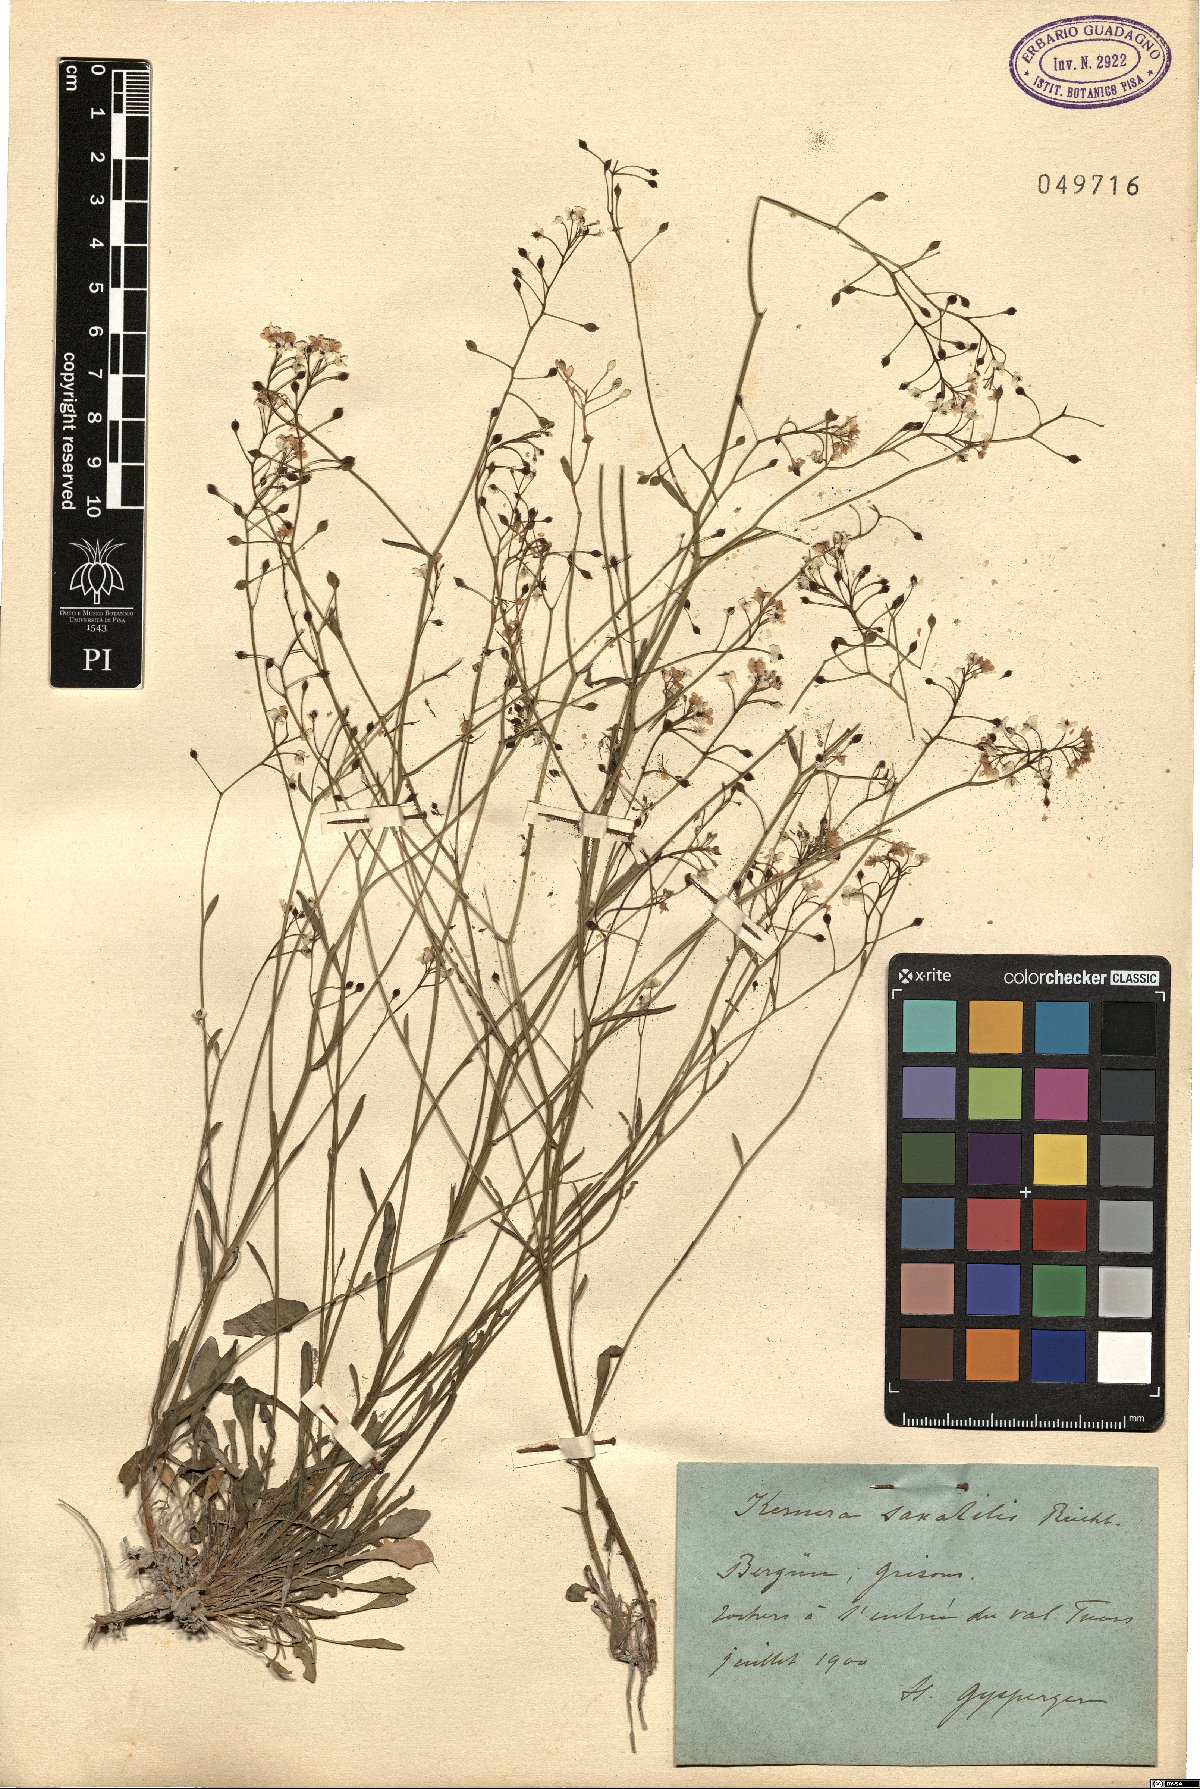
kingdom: Plantae
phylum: Tracheophyta
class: Magnoliopsida
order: Brassicales
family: Brassicaceae
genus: Kernera
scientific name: Kernera saxatilis
